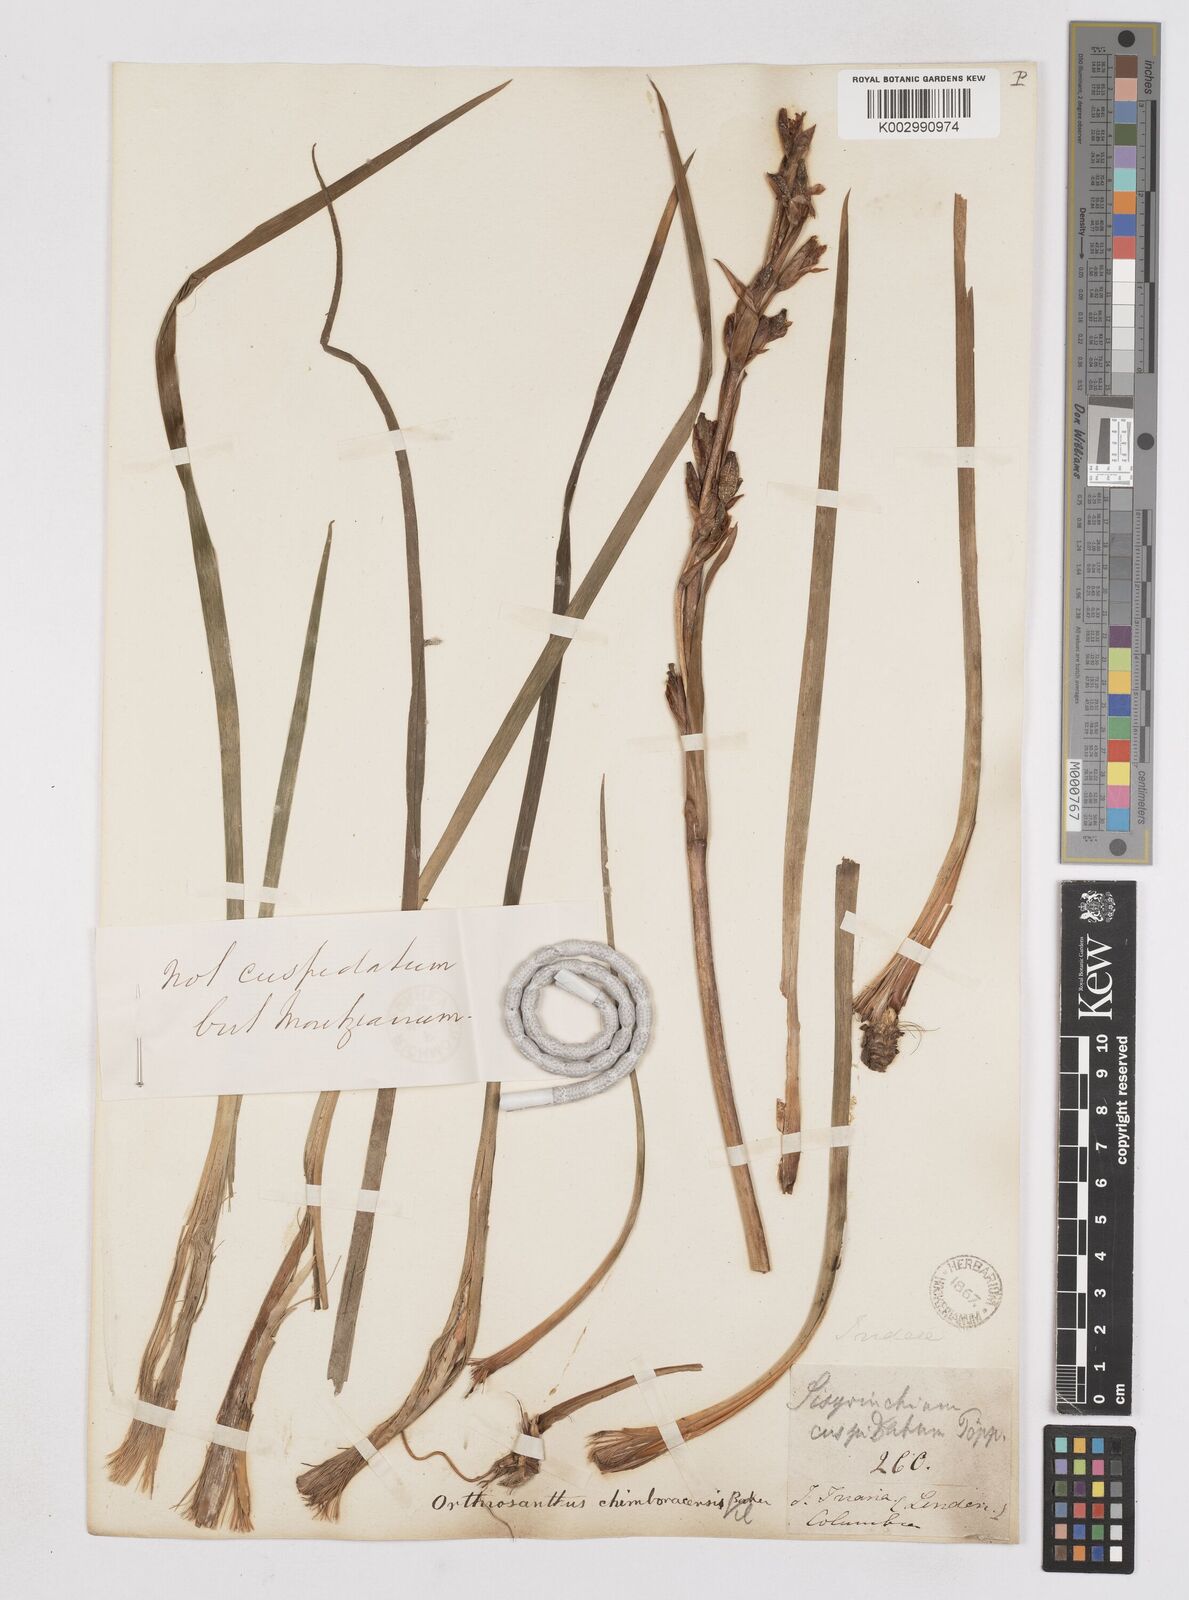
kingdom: Plantae
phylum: Tracheophyta
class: Liliopsida
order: Asparagales
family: Iridaceae
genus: Orthrosanthus
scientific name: Orthrosanthus chimboracensis
